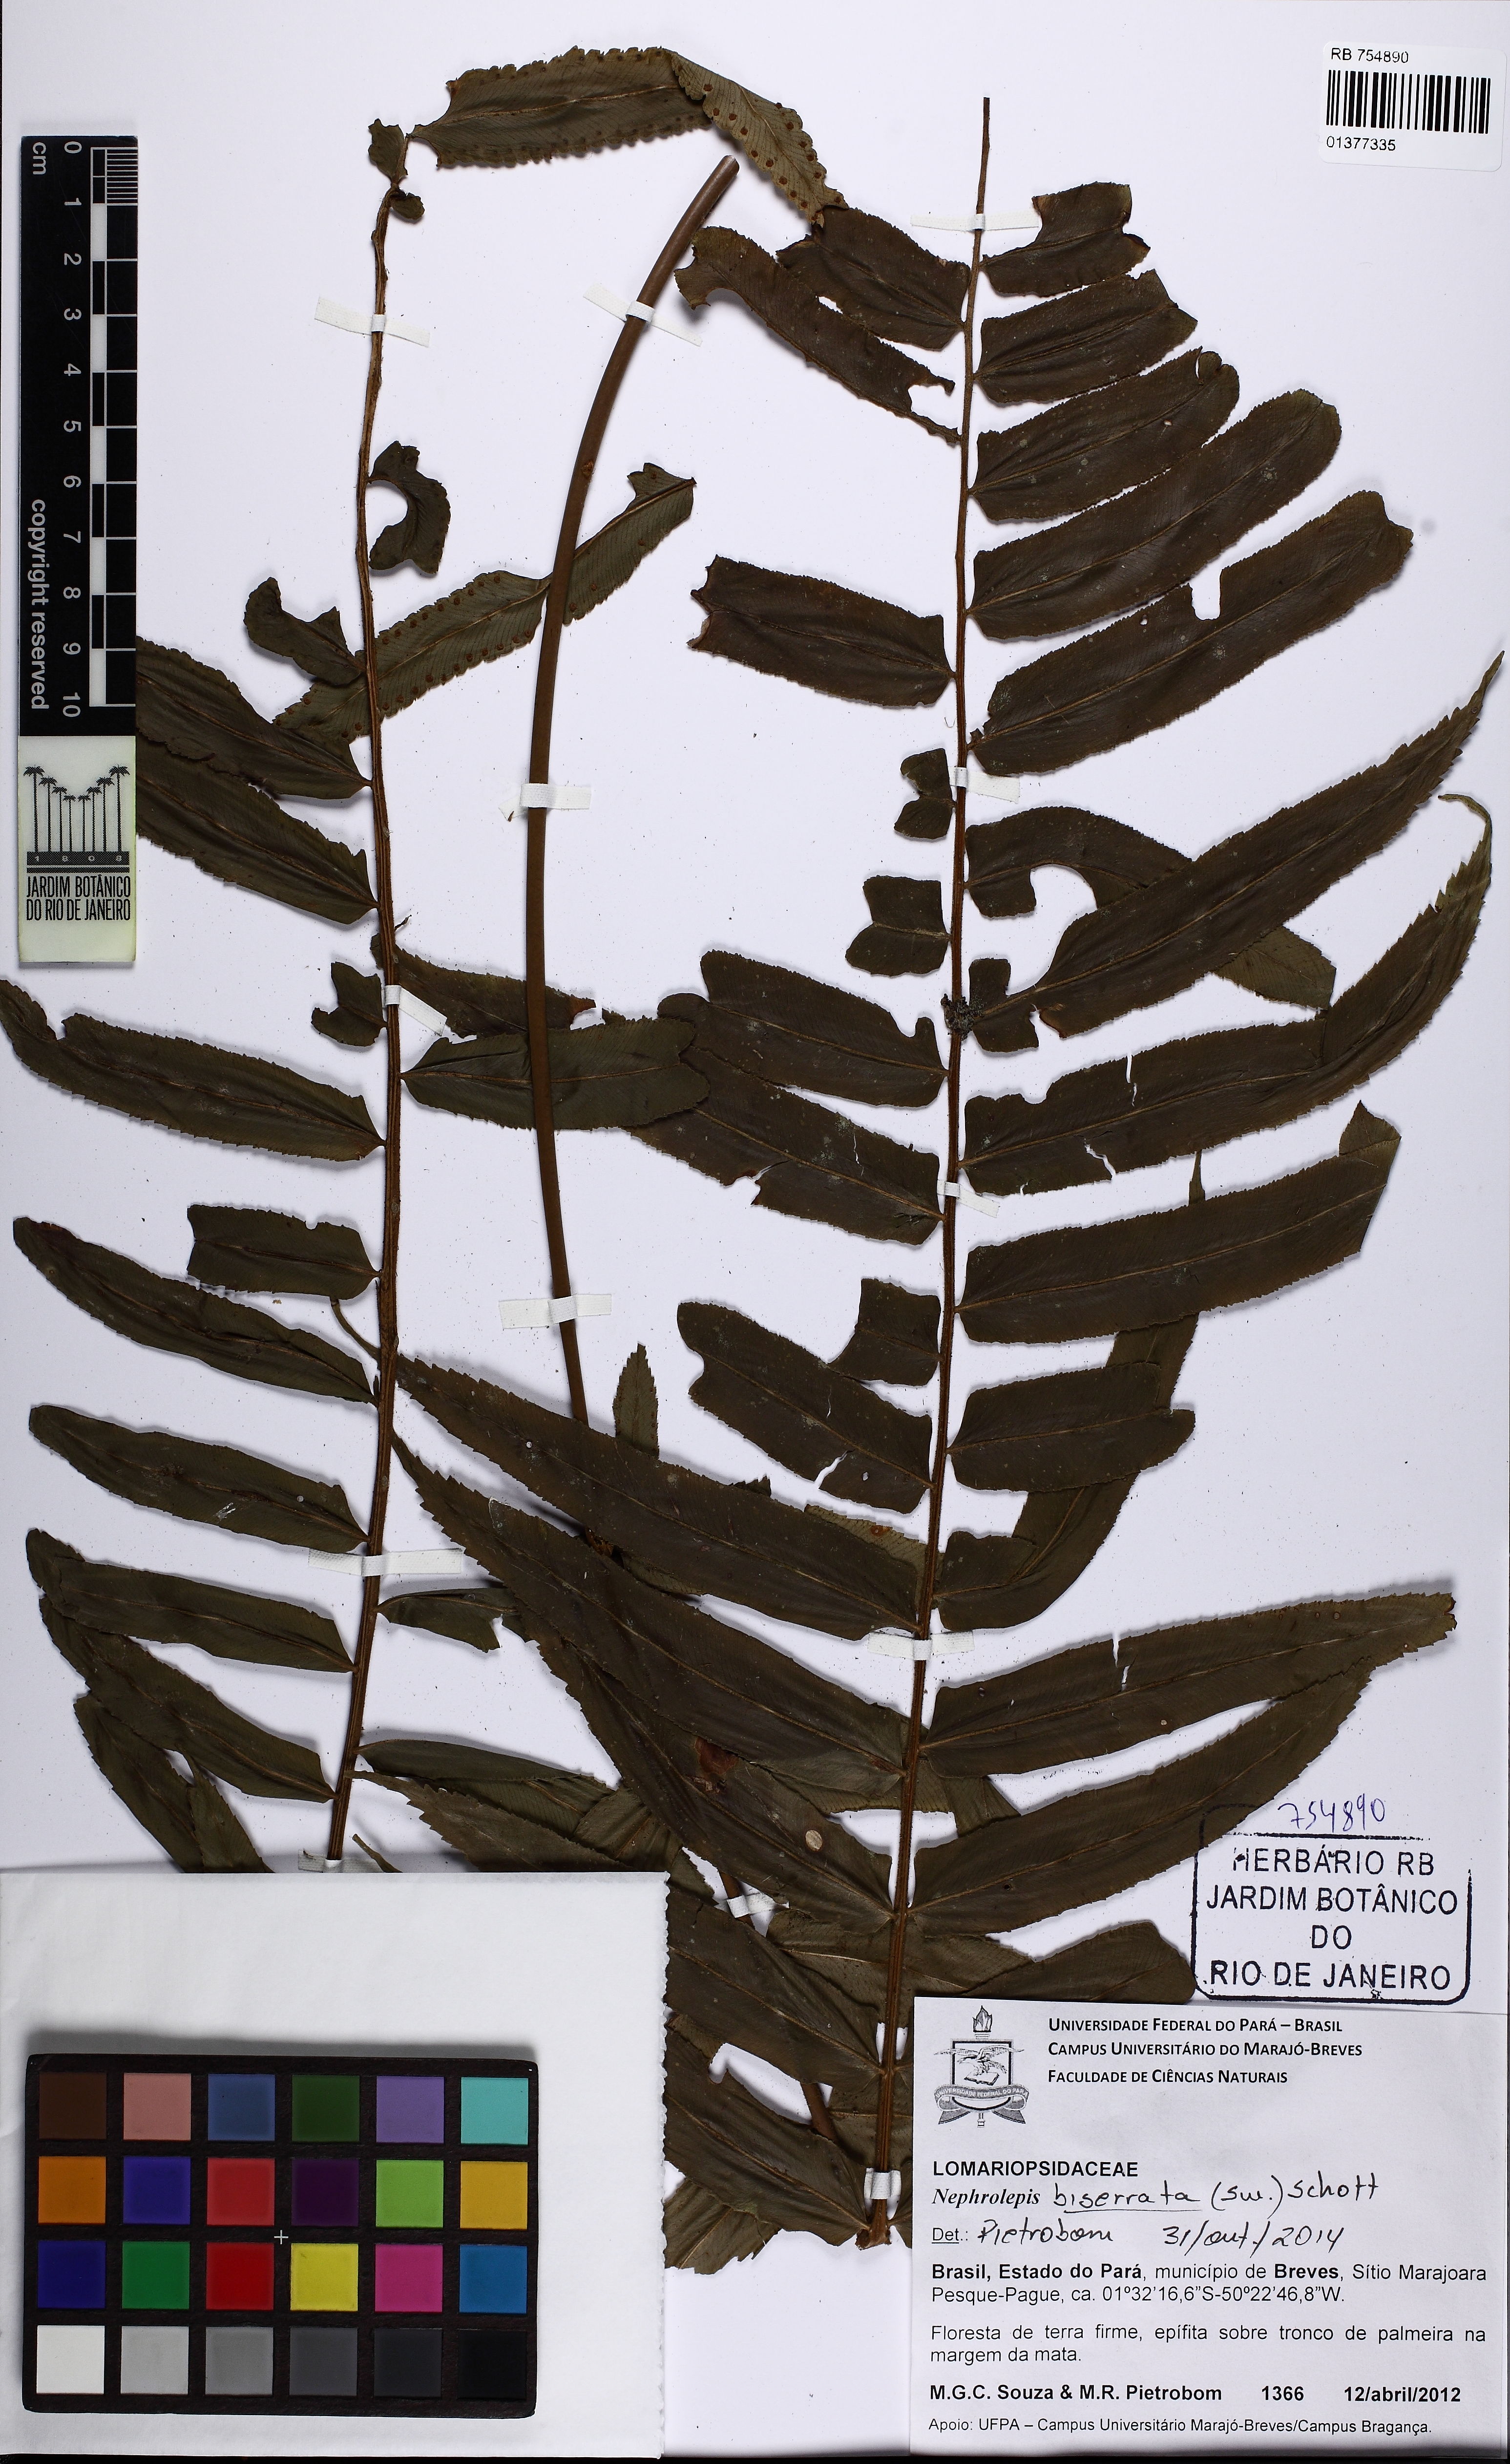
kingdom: Plantae
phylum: Tracheophyta
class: Polypodiopsida
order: Polypodiales
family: Nephrolepidaceae
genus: Nephrolepis
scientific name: Nephrolepis biserrata
